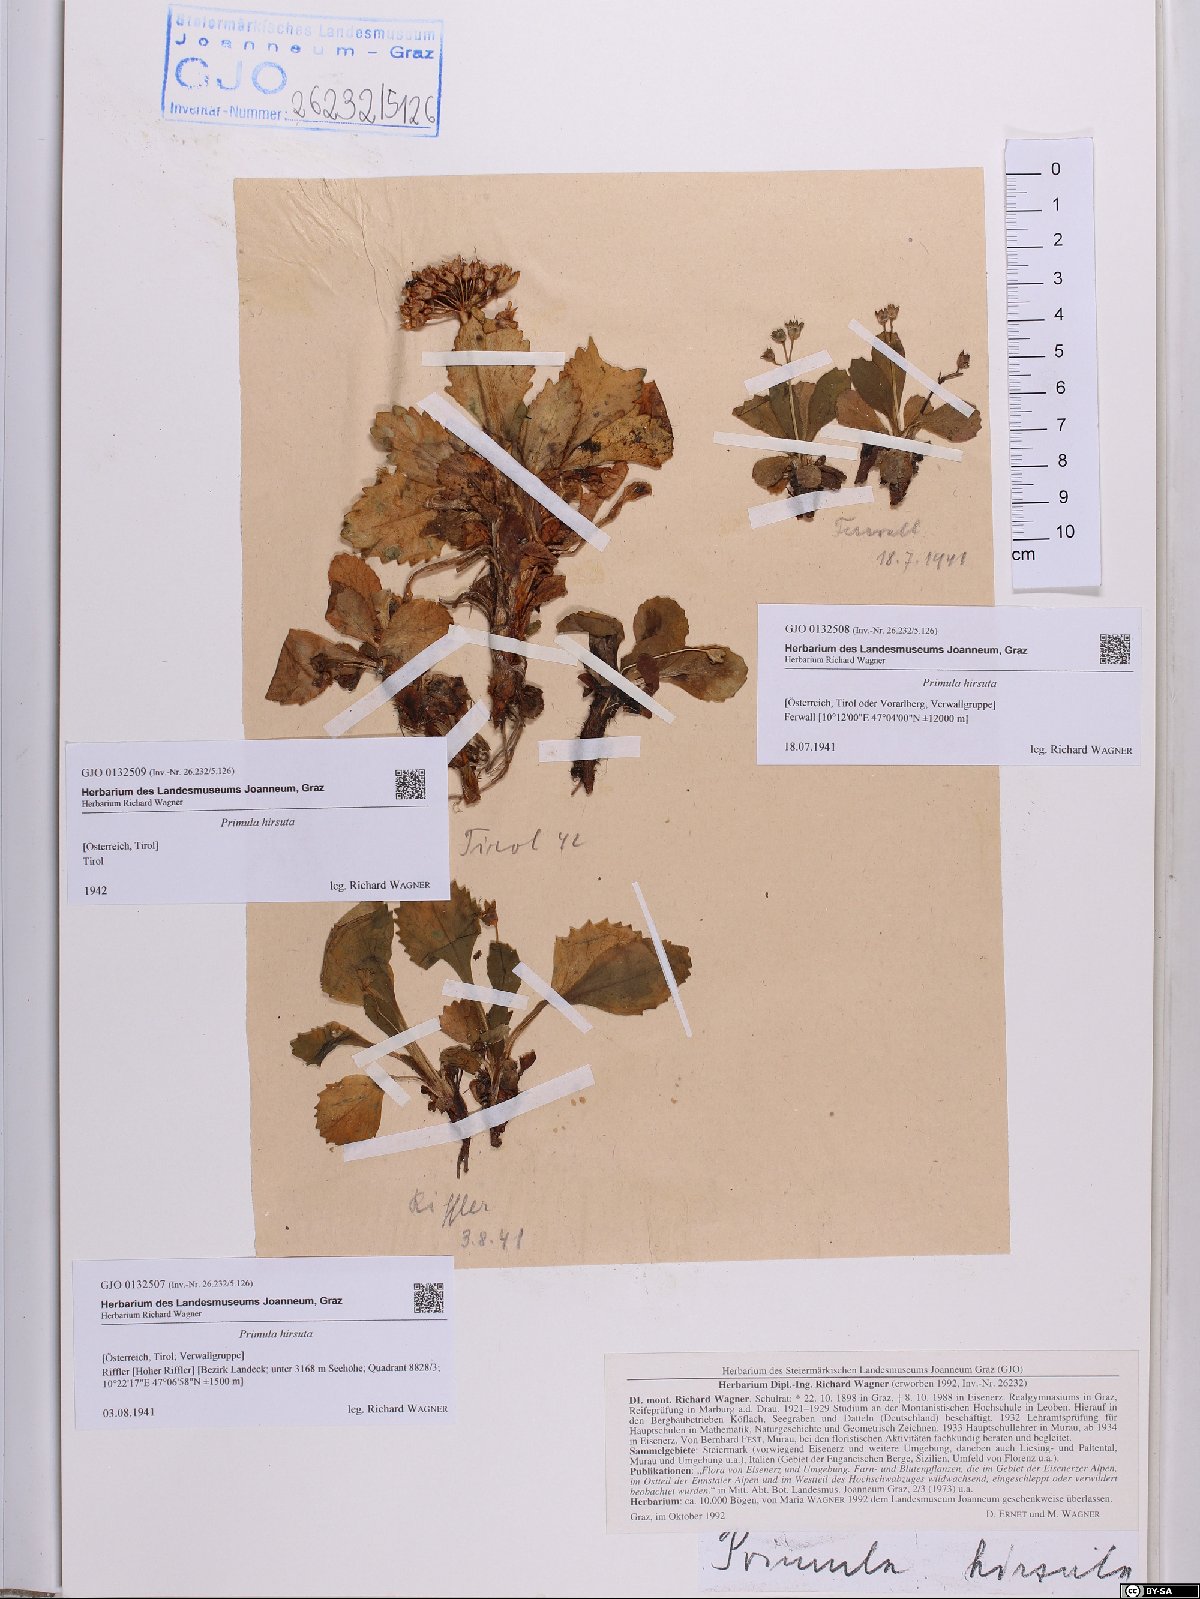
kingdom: Plantae
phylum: Tracheophyta
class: Magnoliopsida
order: Ericales
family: Primulaceae
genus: Primula
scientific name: Primula hirsuta
